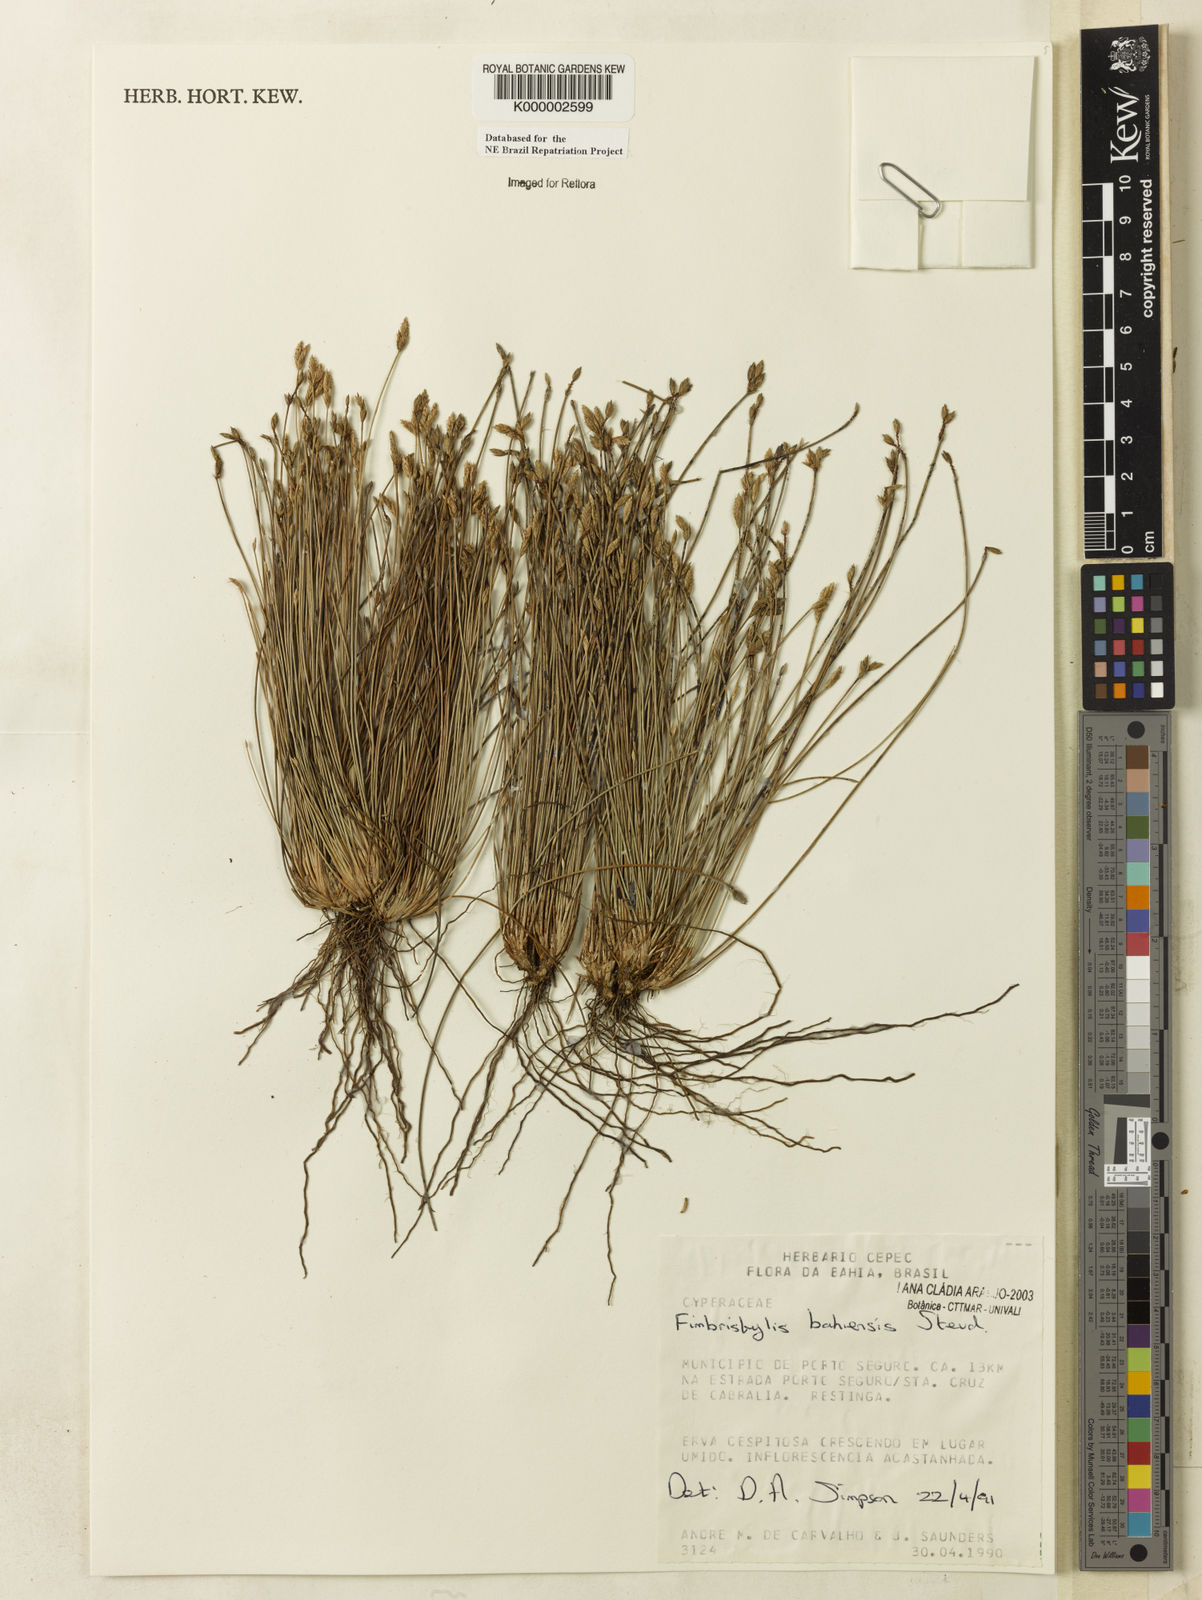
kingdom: Plantae
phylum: Tracheophyta
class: Liliopsida
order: Poales
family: Cyperaceae
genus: Fimbristylis
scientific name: Fimbristylis bahiensis
